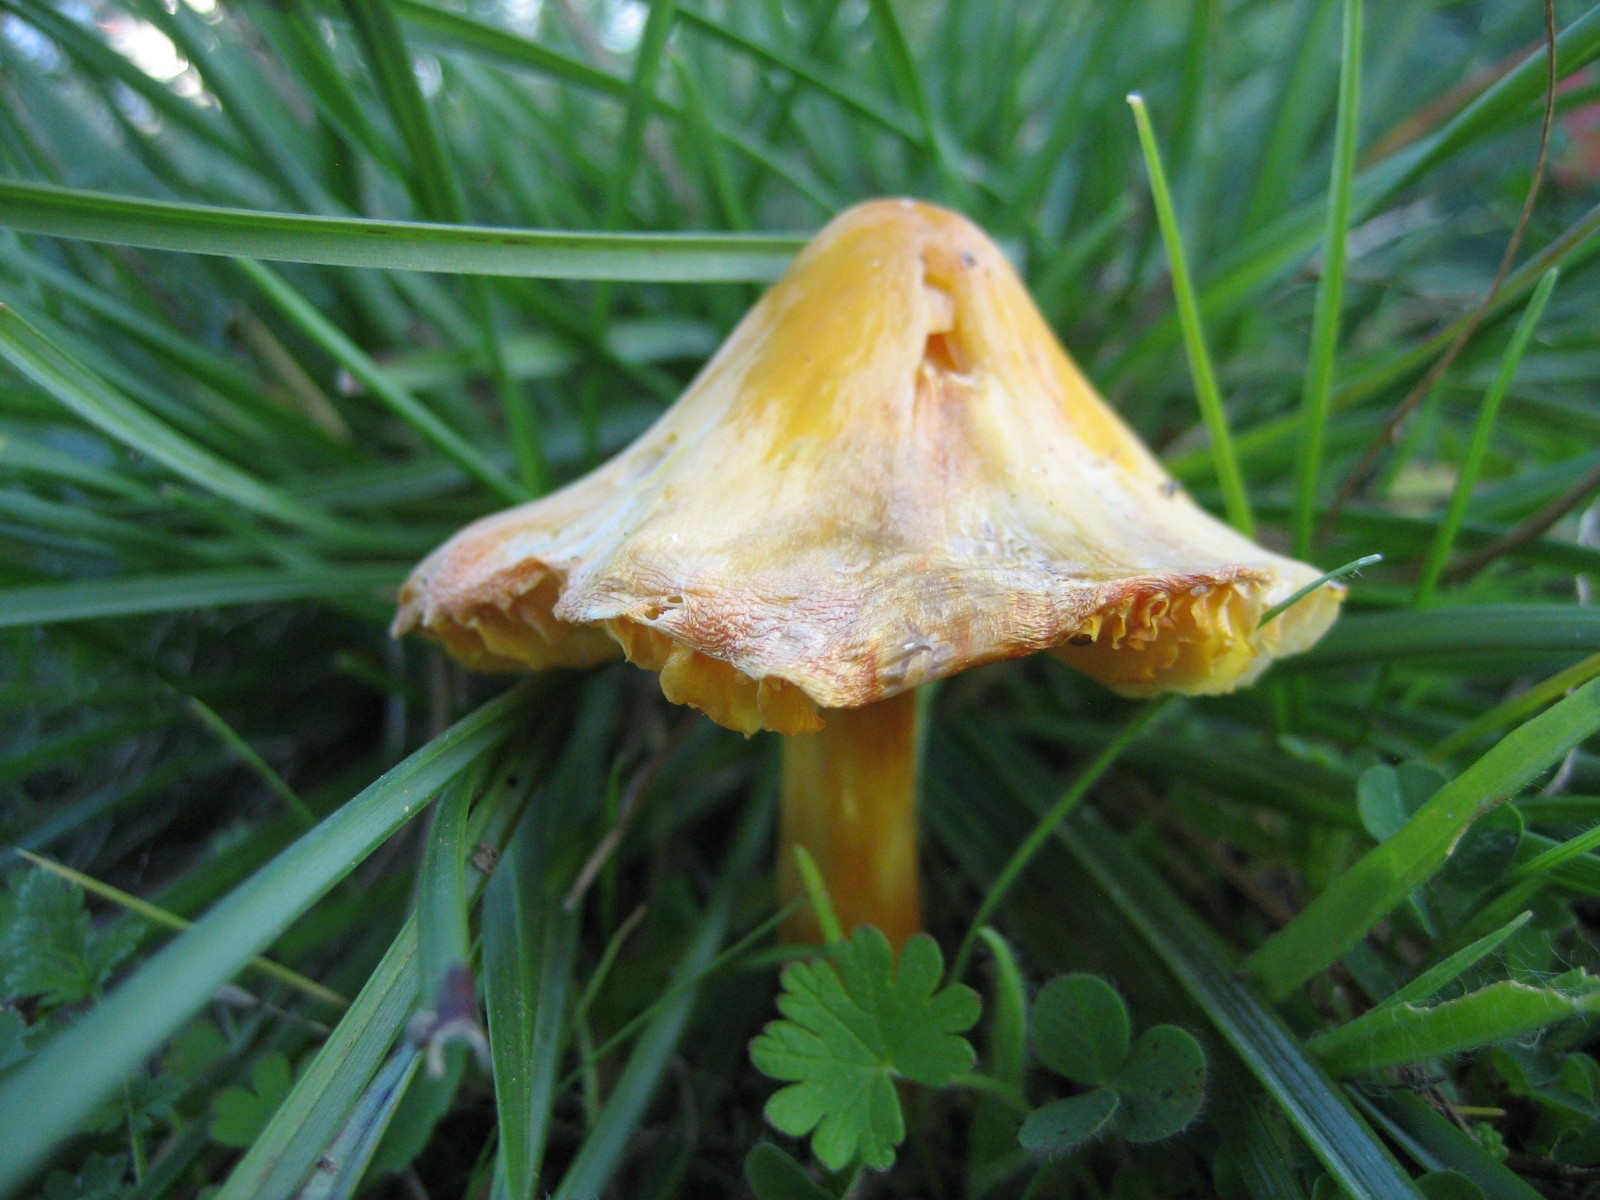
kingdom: Fungi
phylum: Basidiomycota
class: Agaricomycetes
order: Agaricales
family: Hygrophoraceae
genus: Hygrocybe
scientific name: Hygrocybe
